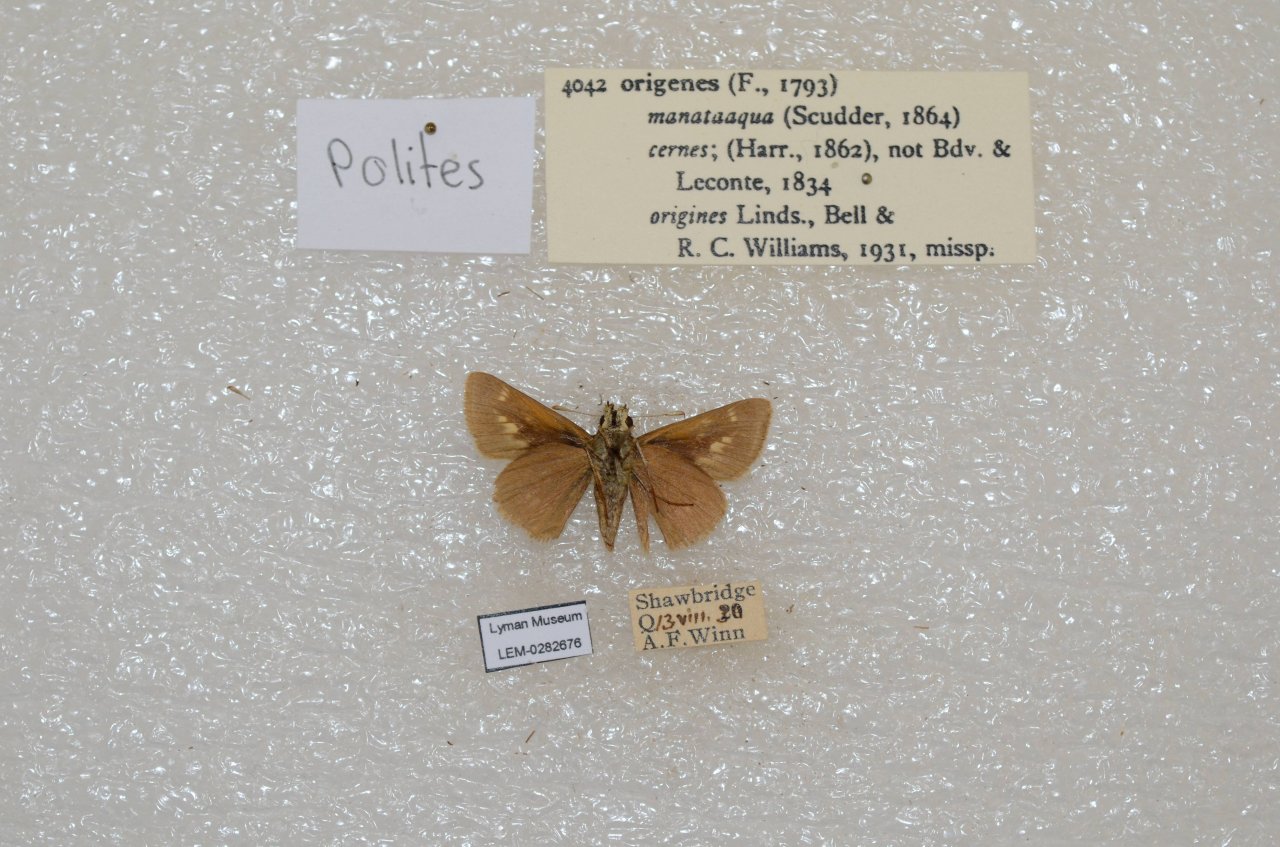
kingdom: Animalia
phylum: Arthropoda
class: Insecta
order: Lepidoptera
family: Hesperiidae
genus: Polites
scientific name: Polites
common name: Crossline Skipper
